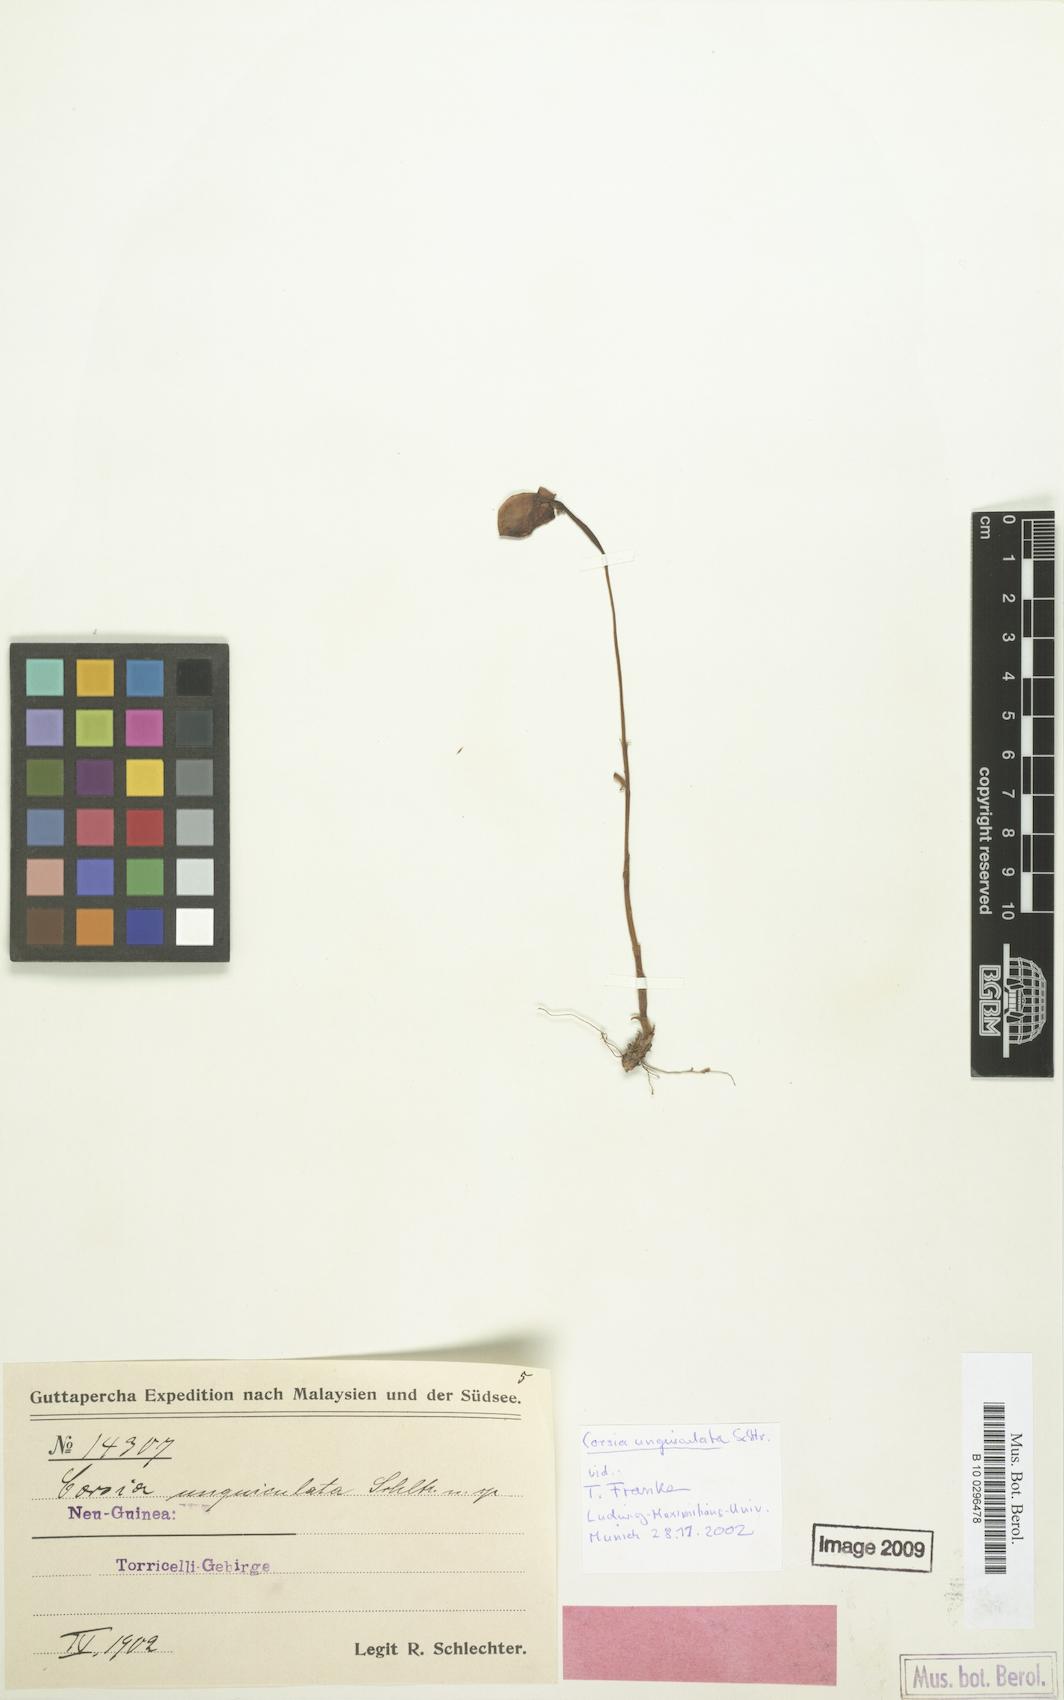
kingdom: Plantae
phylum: Tracheophyta
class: Liliopsida
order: Liliales
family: Corsiaceae
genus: Corsia
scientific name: Corsia unguiculata
